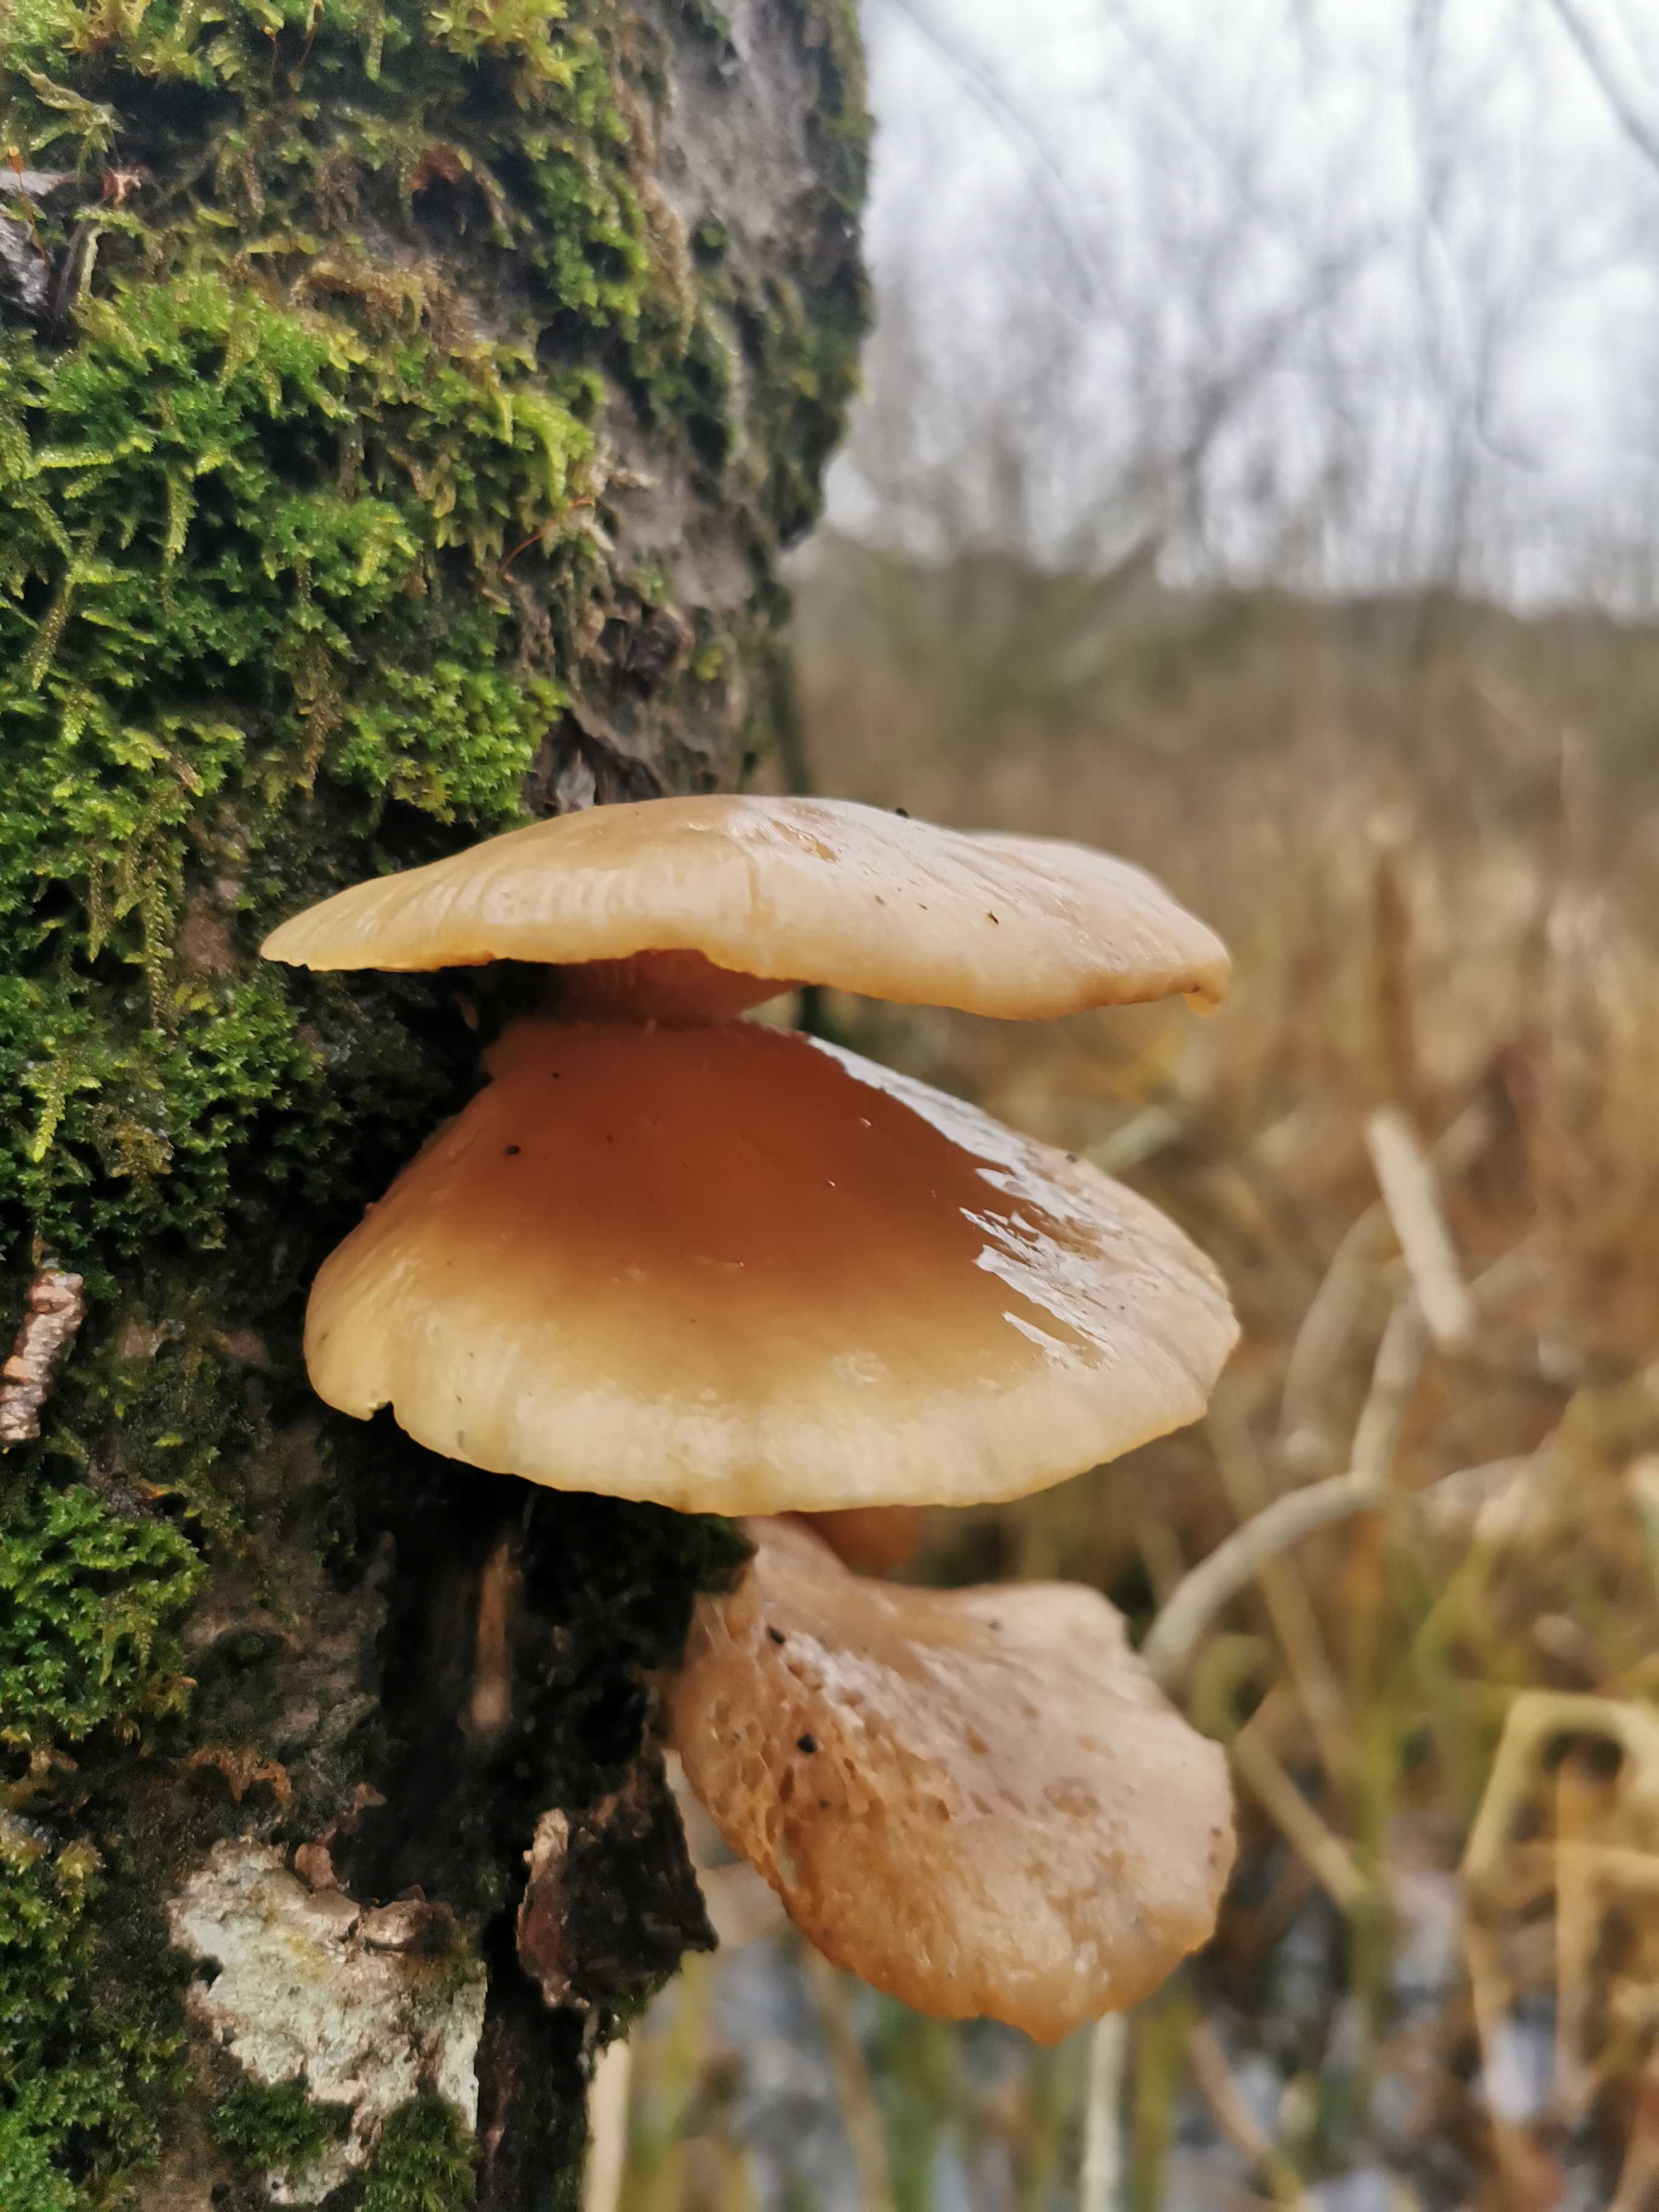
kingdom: Fungi
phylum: Basidiomycota
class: Agaricomycetes
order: Agaricales
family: Sarcomyxaceae
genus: Sarcomyxa
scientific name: Sarcomyxa serotina
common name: gummihat
